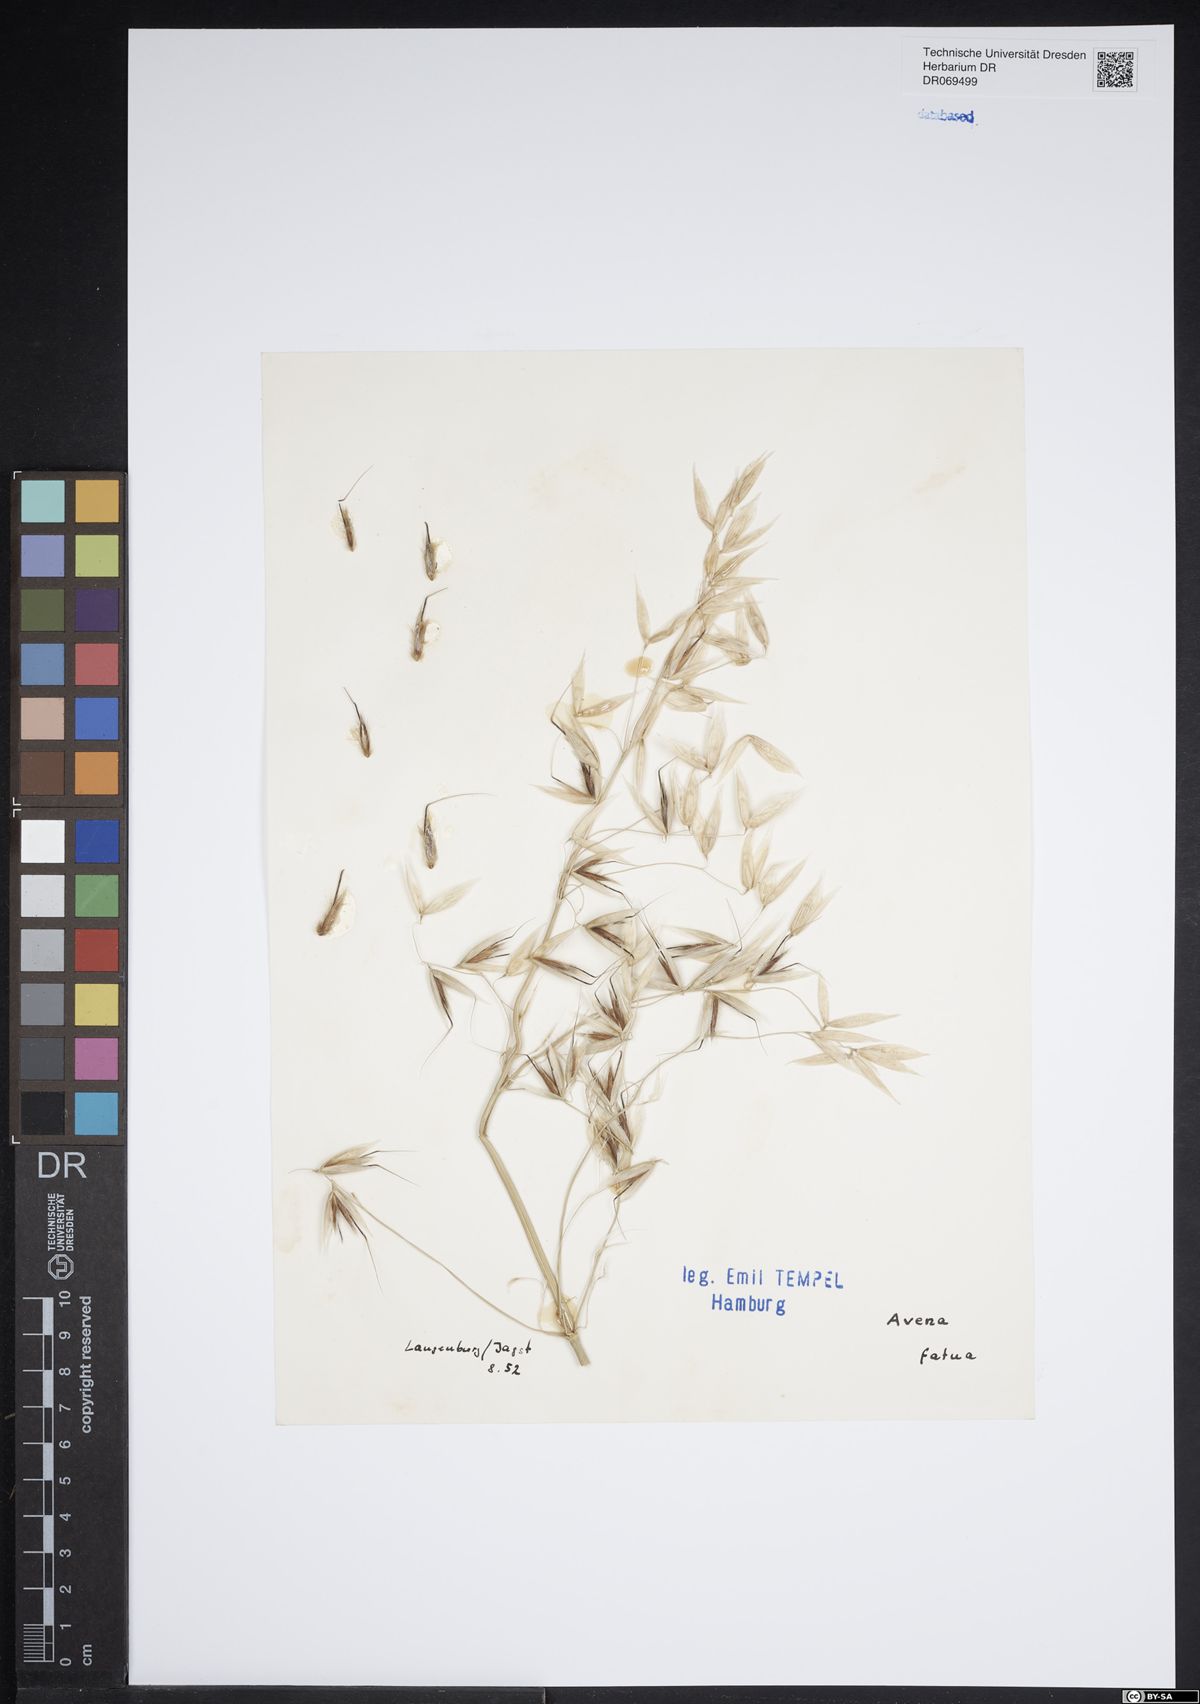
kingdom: Plantae
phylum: Tracheophyta
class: Liliopsida
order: Poales
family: Poaceae
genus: Avena
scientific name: Avena fatua
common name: Wild oat
